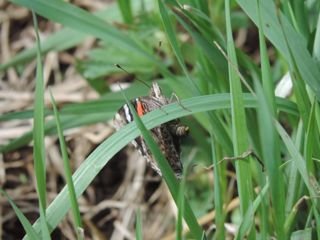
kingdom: Animalia
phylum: Arthropoda
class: Insecta
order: Lepidoptera
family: Nymphalidae
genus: Vanessa
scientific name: Vanessa atalanta
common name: Red Admiral
